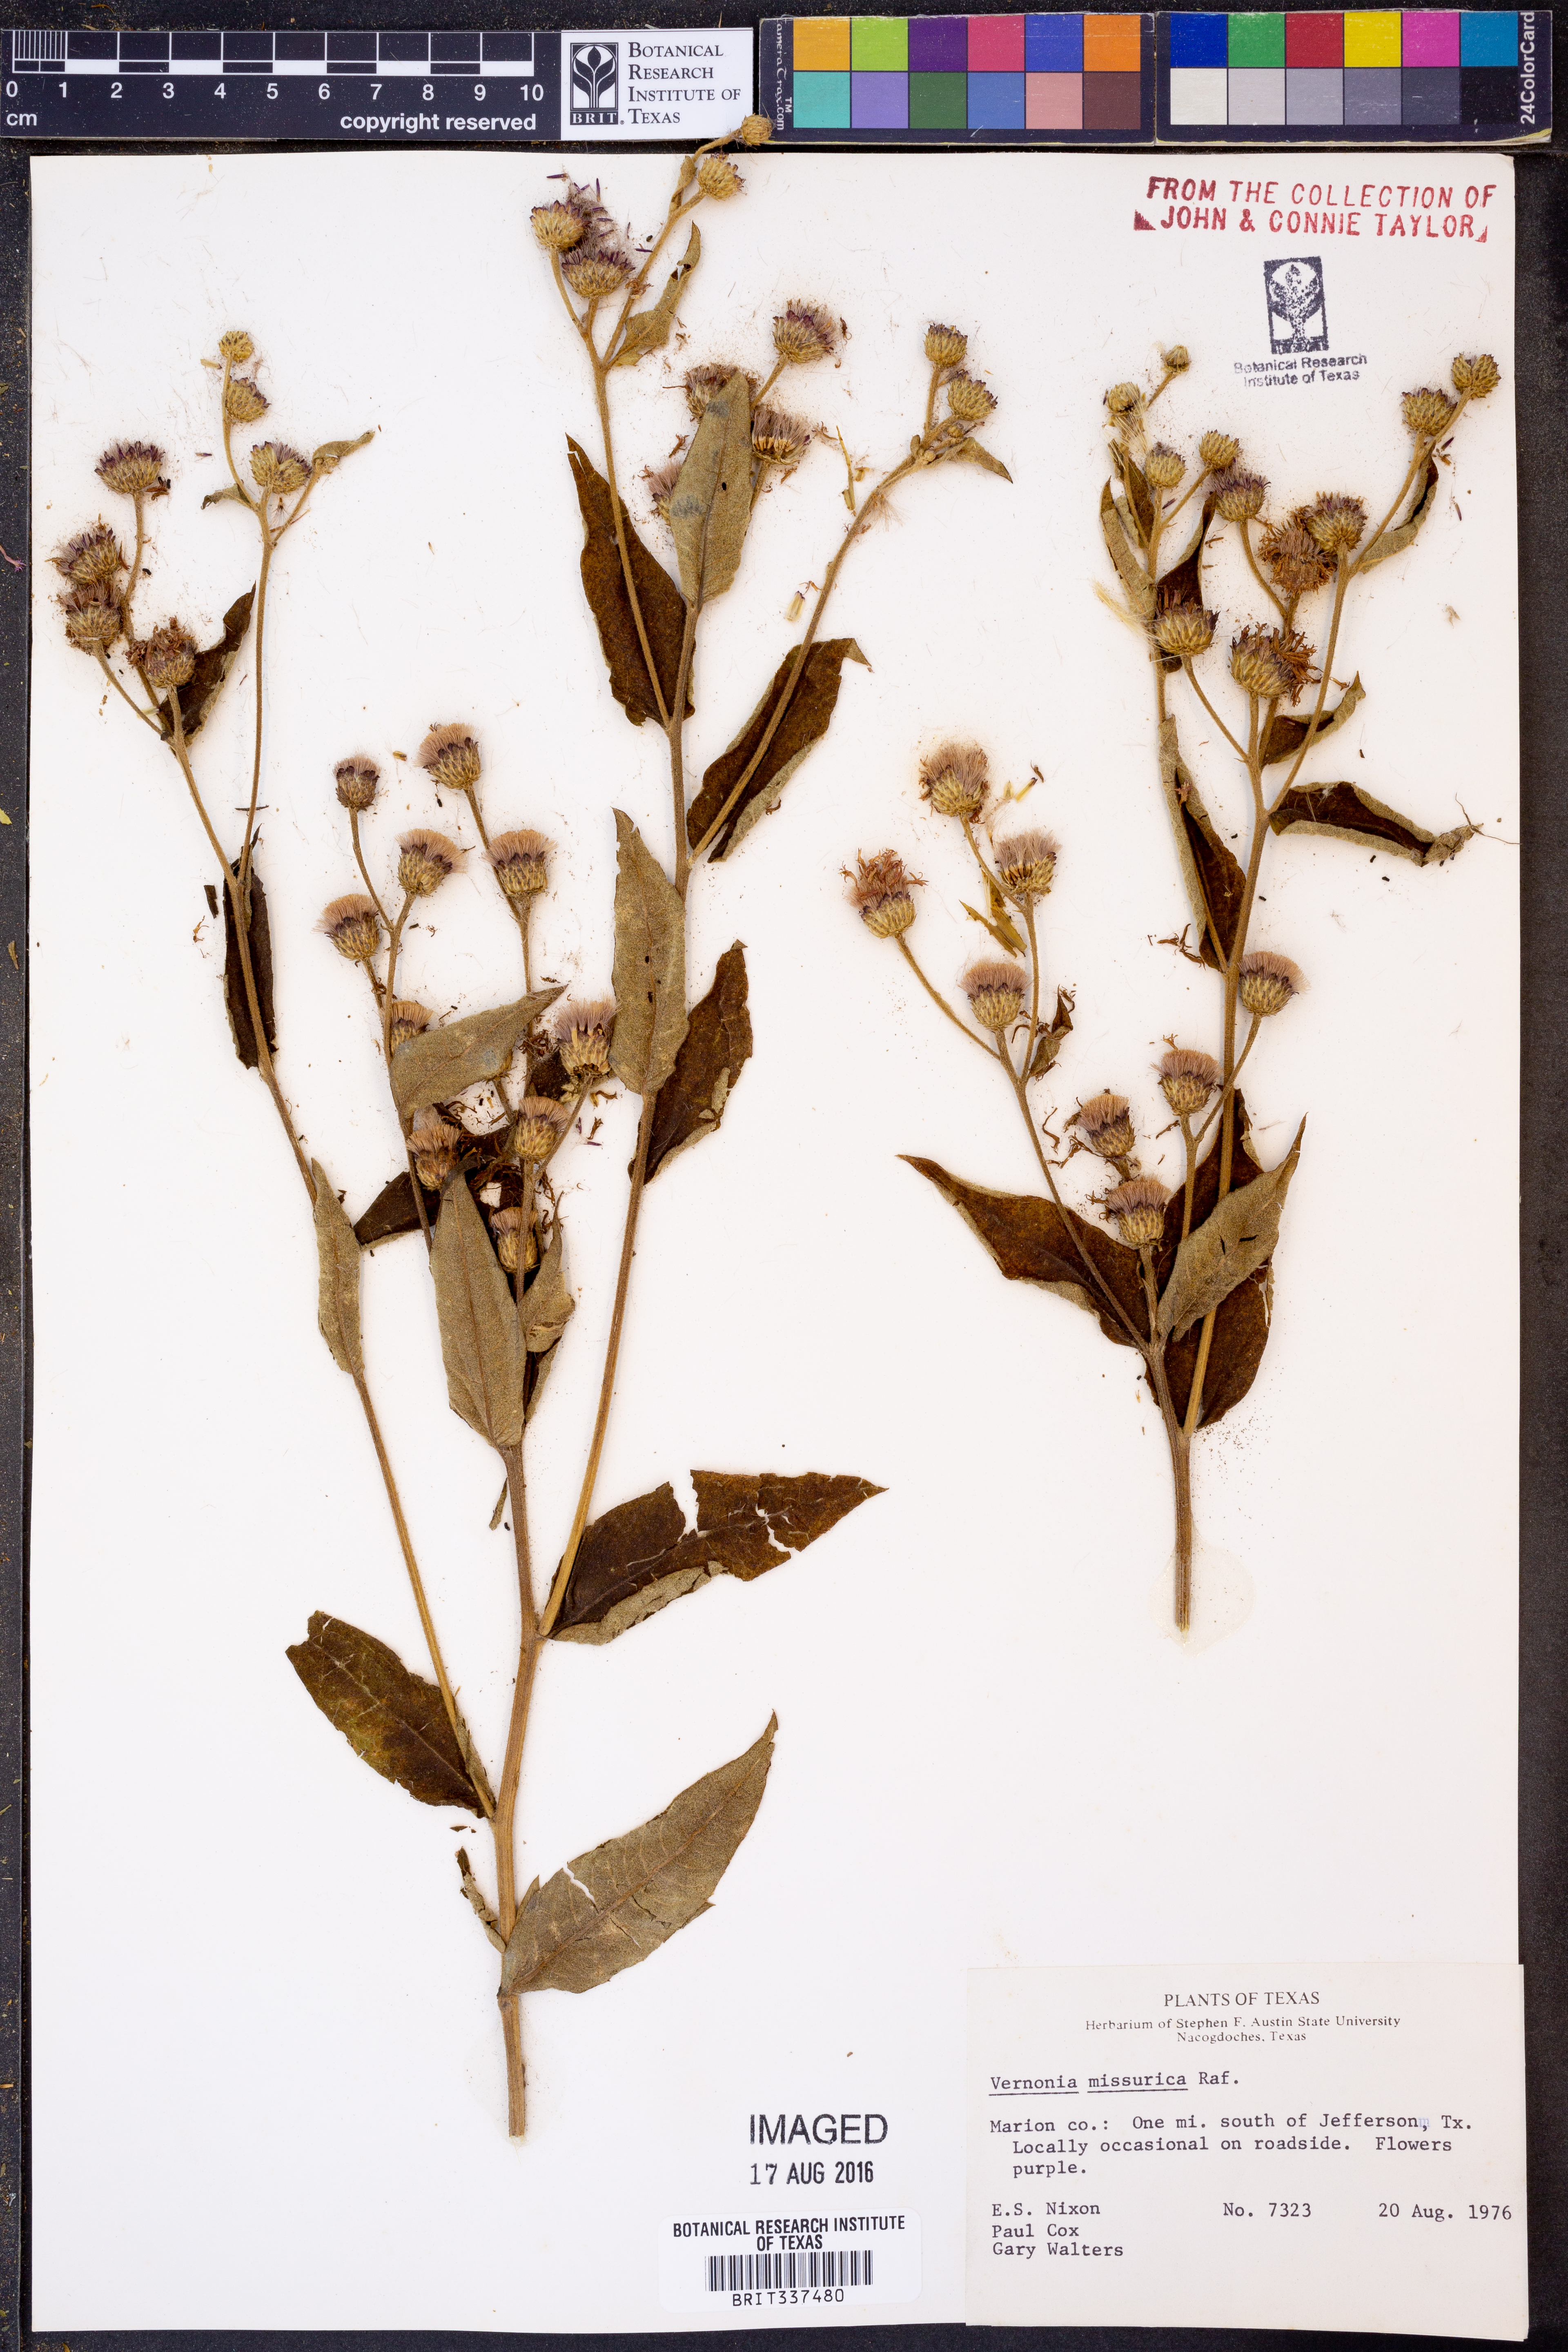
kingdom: Plantae
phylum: Tracheophyta
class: Magnoliopsida
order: Asterales
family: Asteraceae
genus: Vernonia
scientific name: Vernonia missurica
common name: Missouri ironweed
